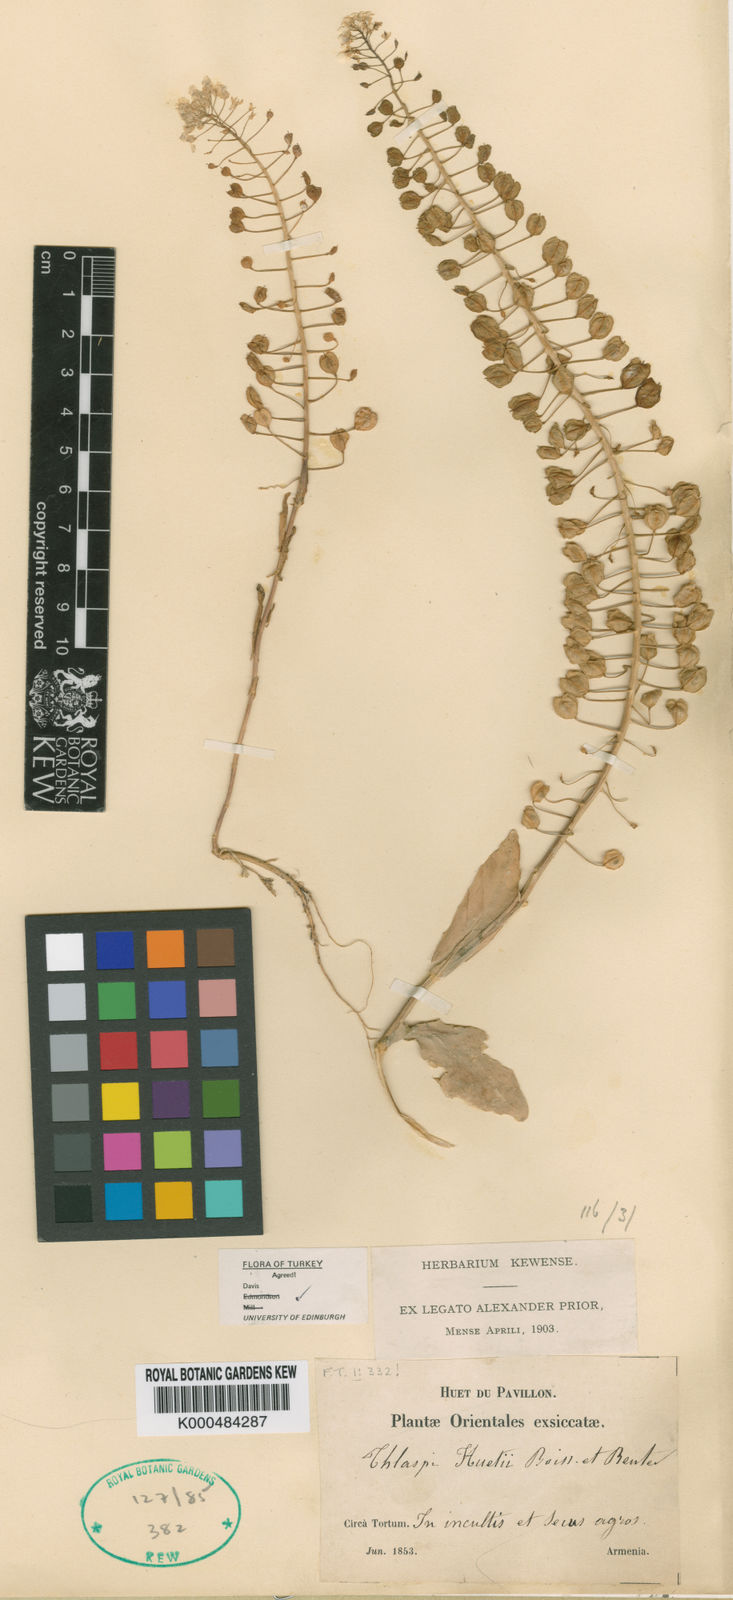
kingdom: Plantae
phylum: Tracheophyta
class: Magnoliopsida
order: Brassicales
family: Brassicaceae
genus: Thlaspi
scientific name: Thlaspi huetii
